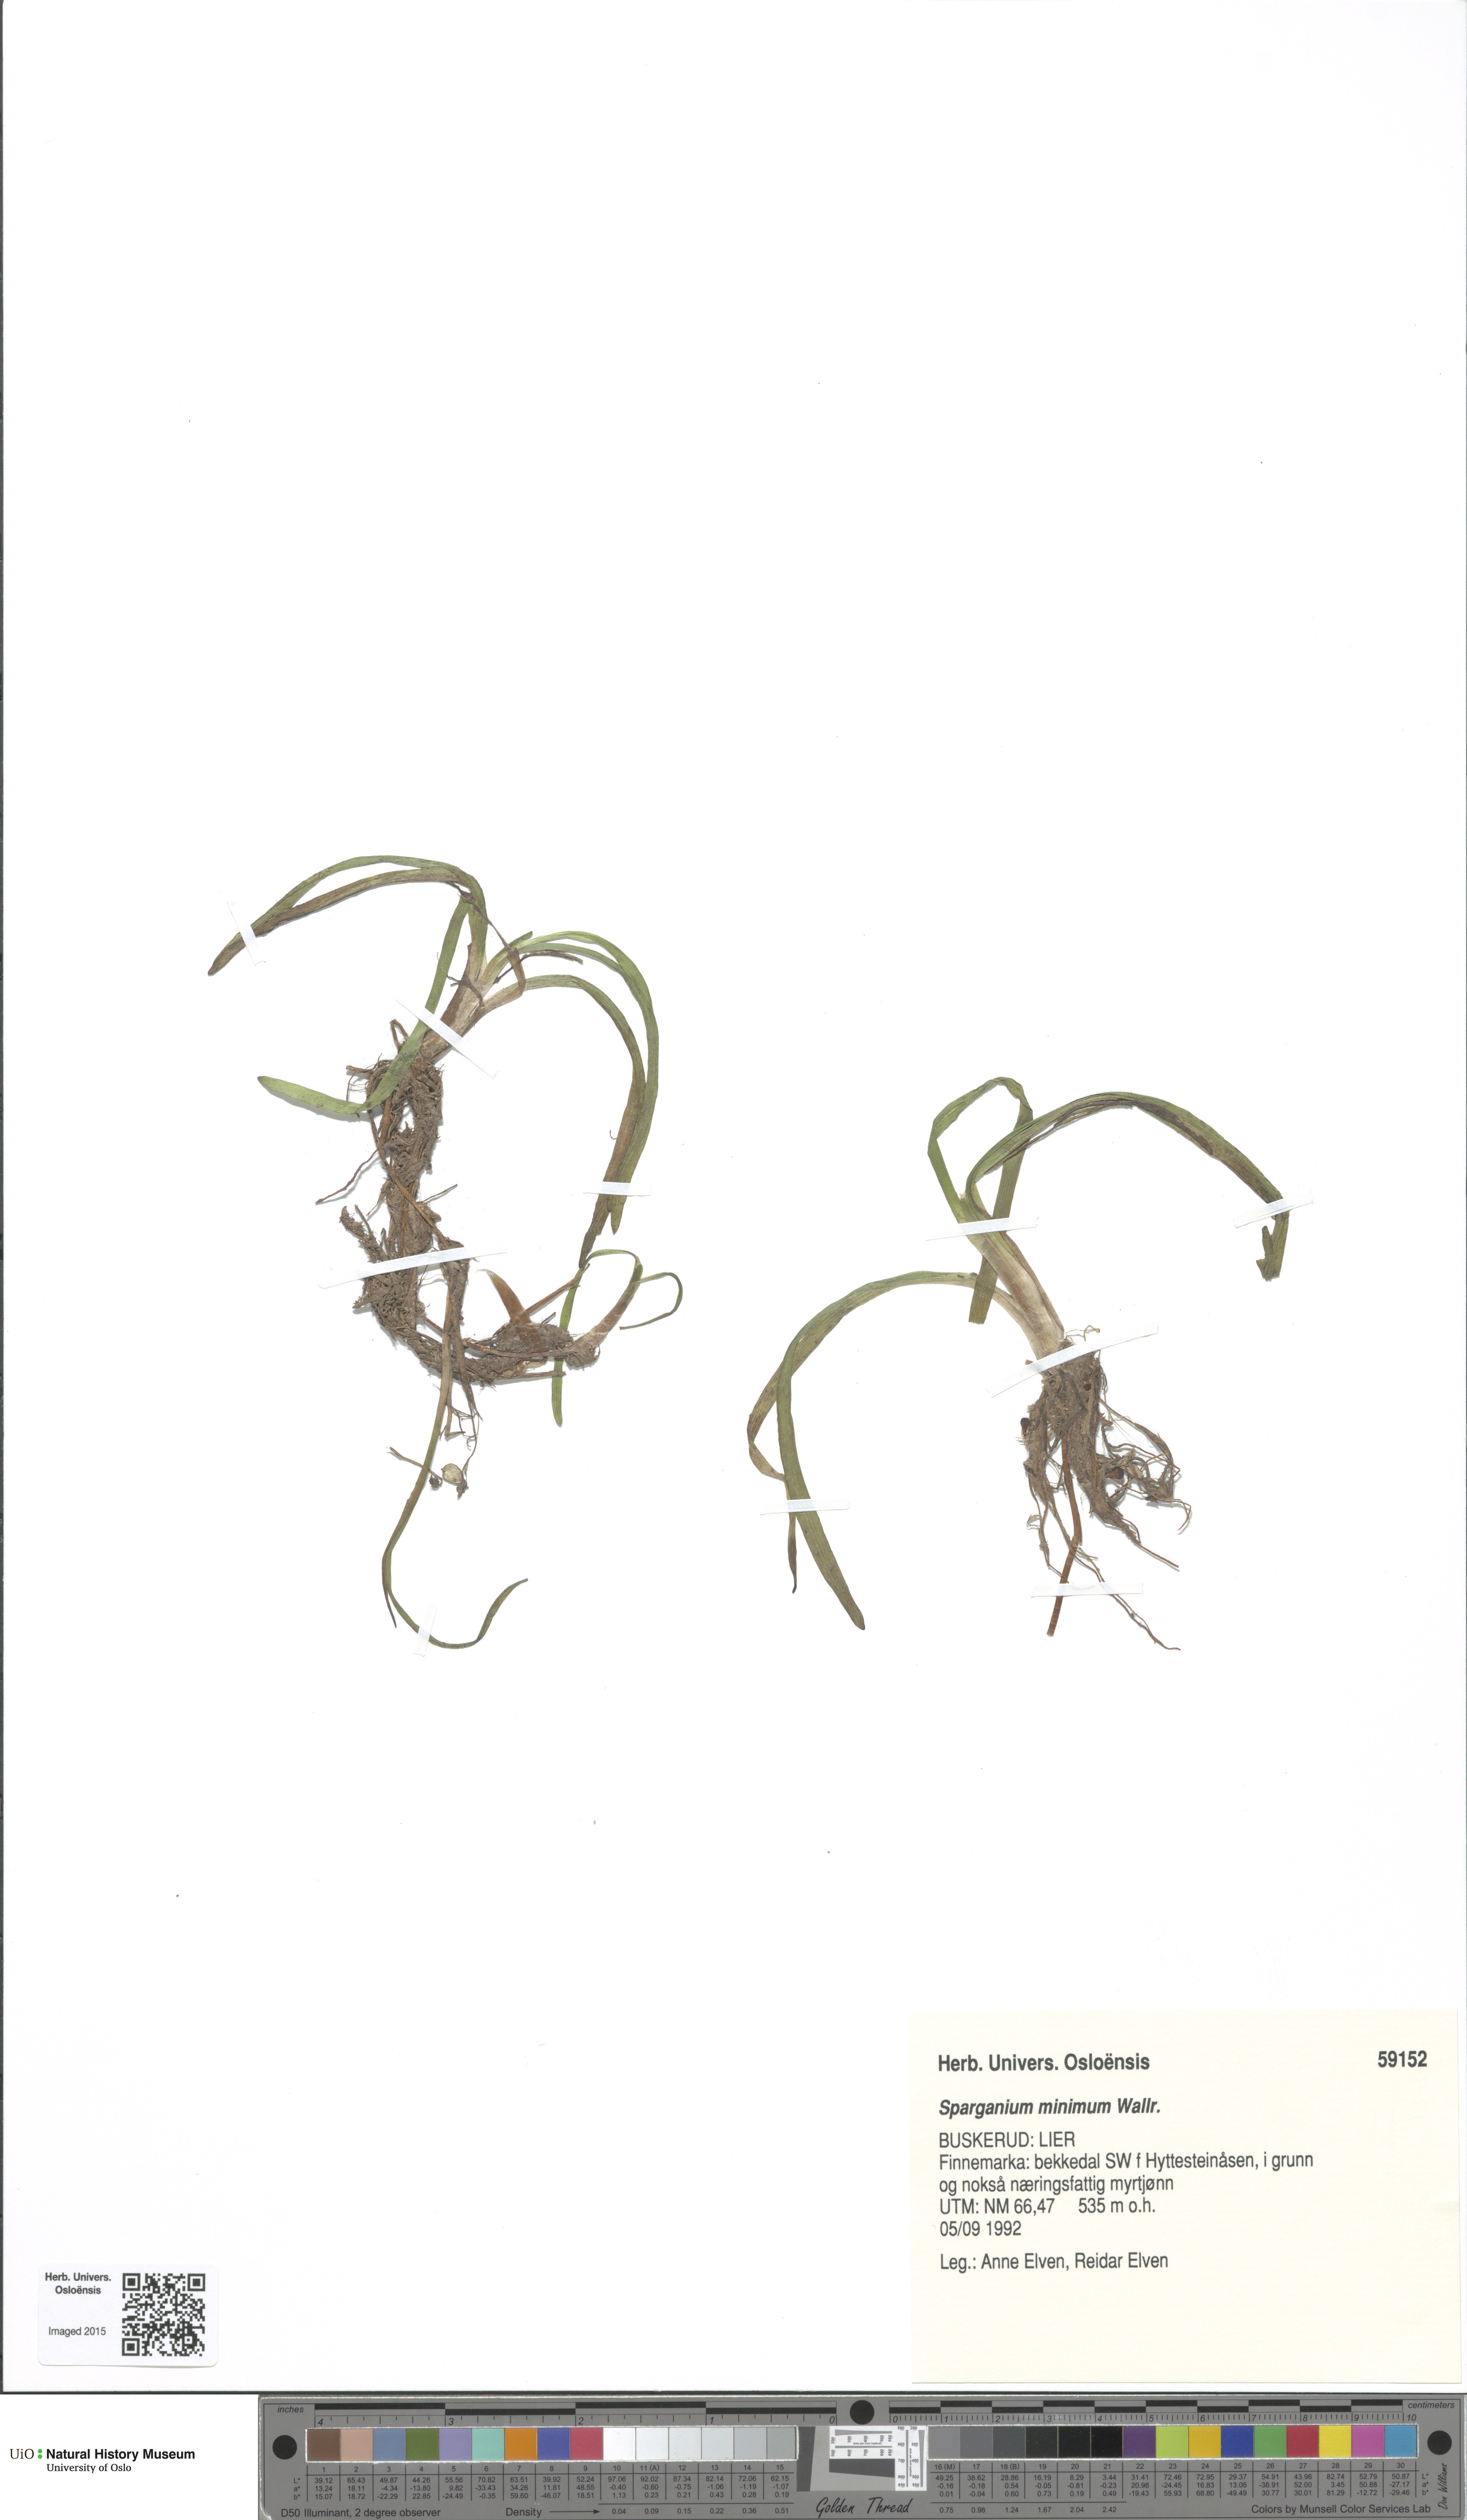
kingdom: Plantae
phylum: Tracheophyta
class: Liliopsida
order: Poales
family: Typhaceae
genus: Sparganium
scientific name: Sparganium natans
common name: Least bur-reed
